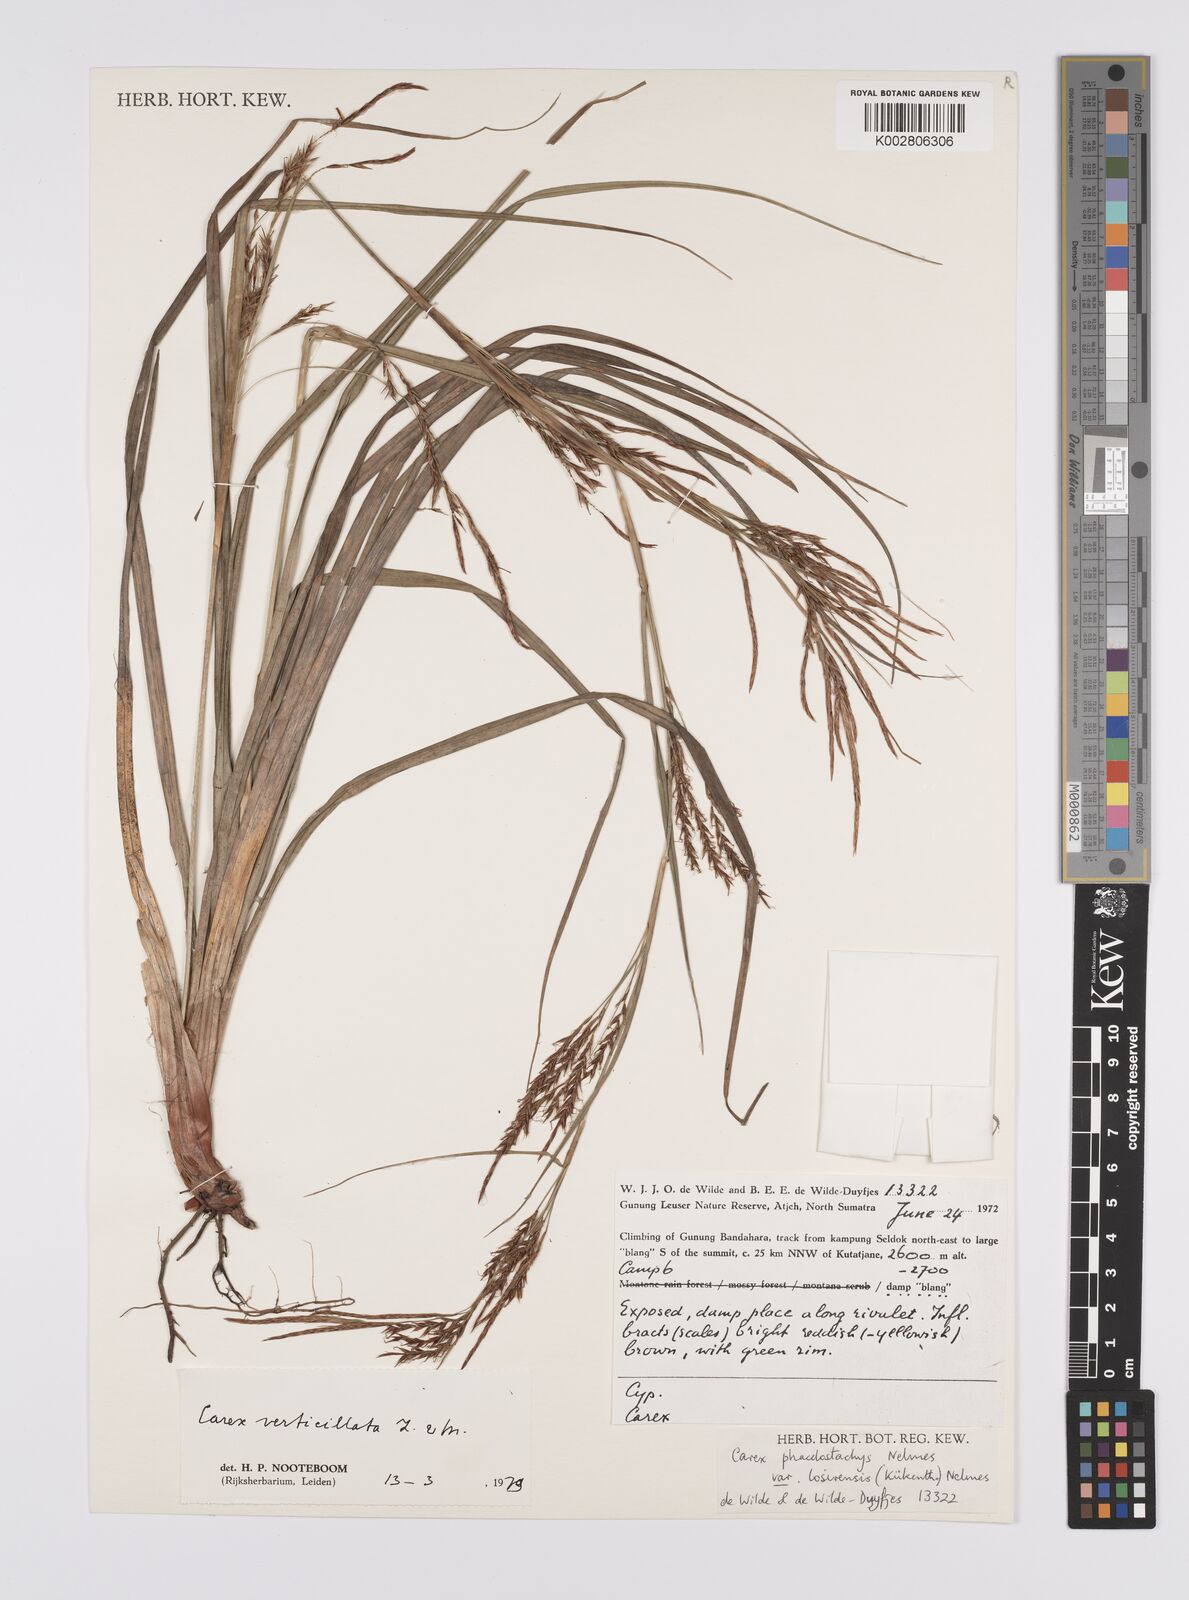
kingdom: Plantae
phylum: Tracheophyta
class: Liliopsida
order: Poales
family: Cyperaceae
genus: Carex
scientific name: Carex verticillata
